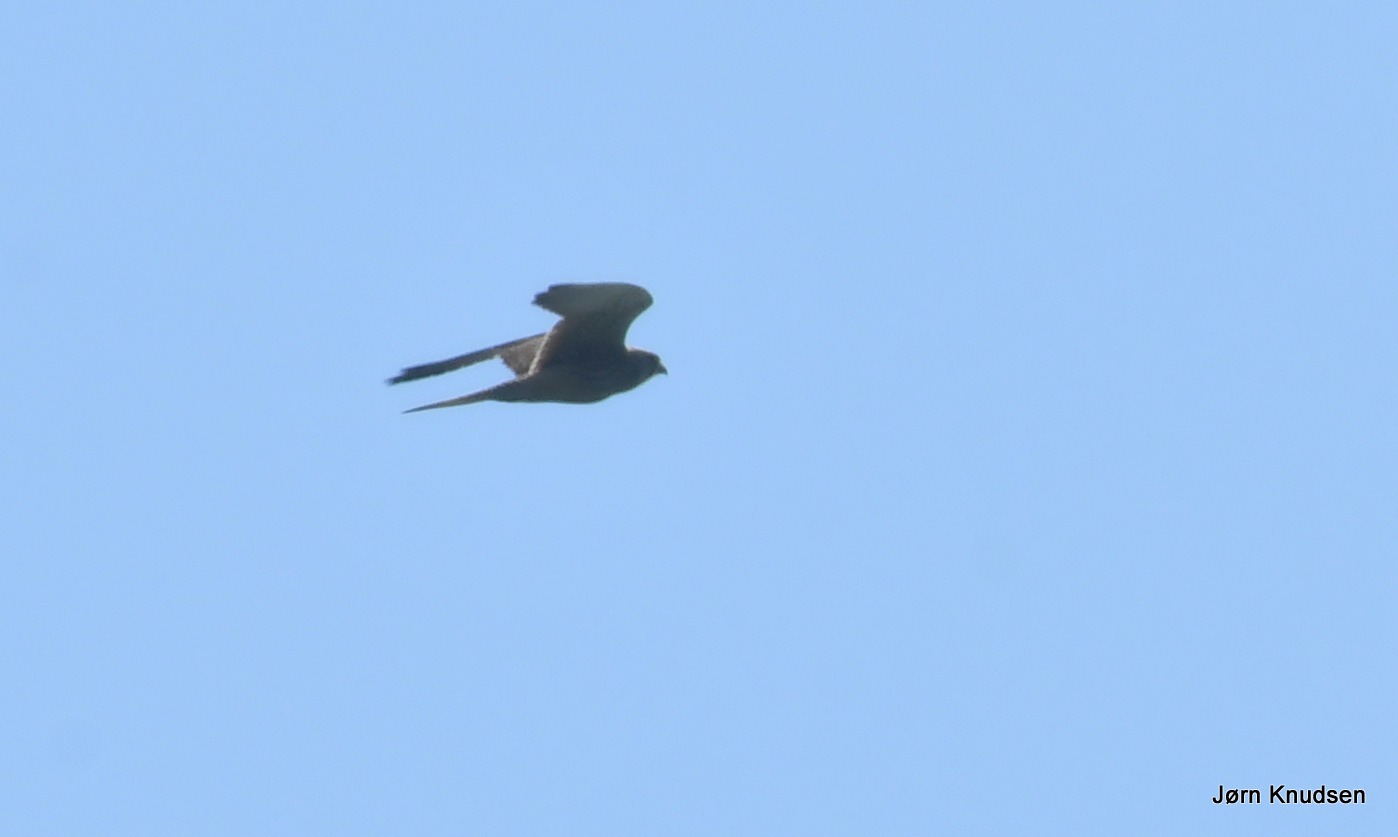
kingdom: Animalia
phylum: Chordata
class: Aves
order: Accipitriformes
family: Accipitridae
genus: Circus
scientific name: Circus aeruginosus
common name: Rørhøg
